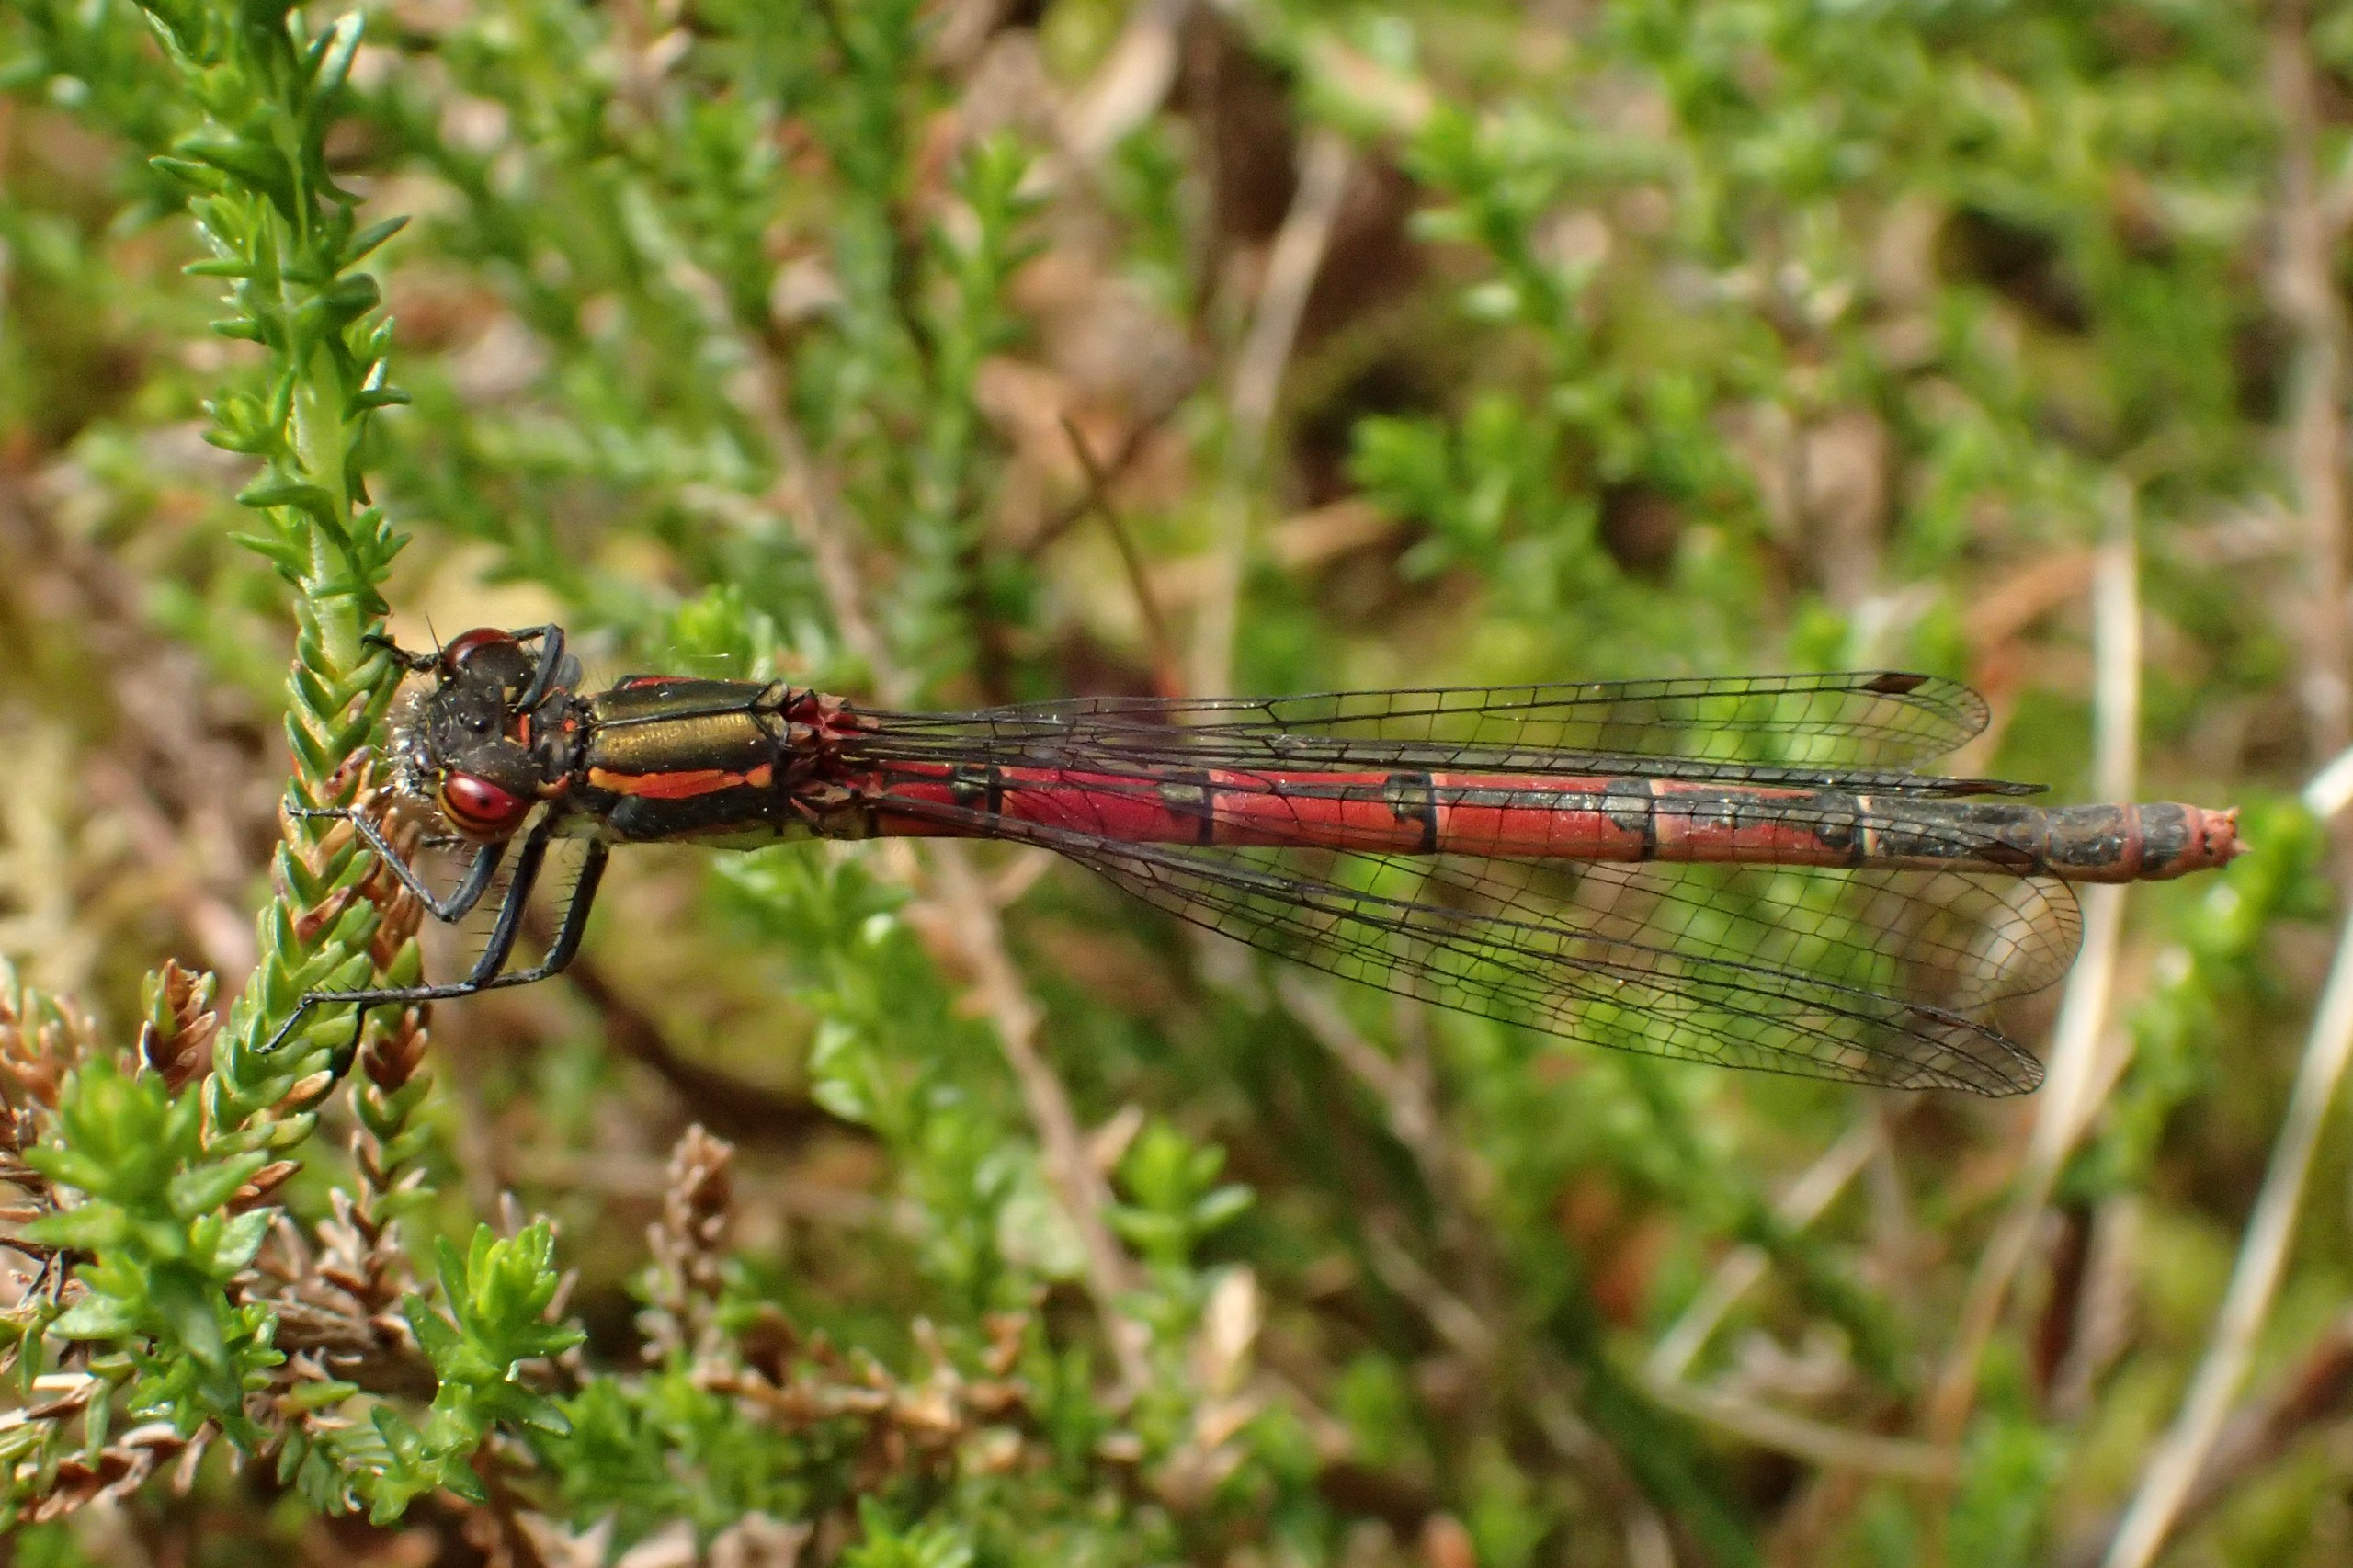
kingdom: Animalia
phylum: Arthropoda
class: Insecta
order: Odonata
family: Coenagrionidae
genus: Pyrrhosoma
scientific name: Pyrrhosoma nymphula
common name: Rød vandnymfe
